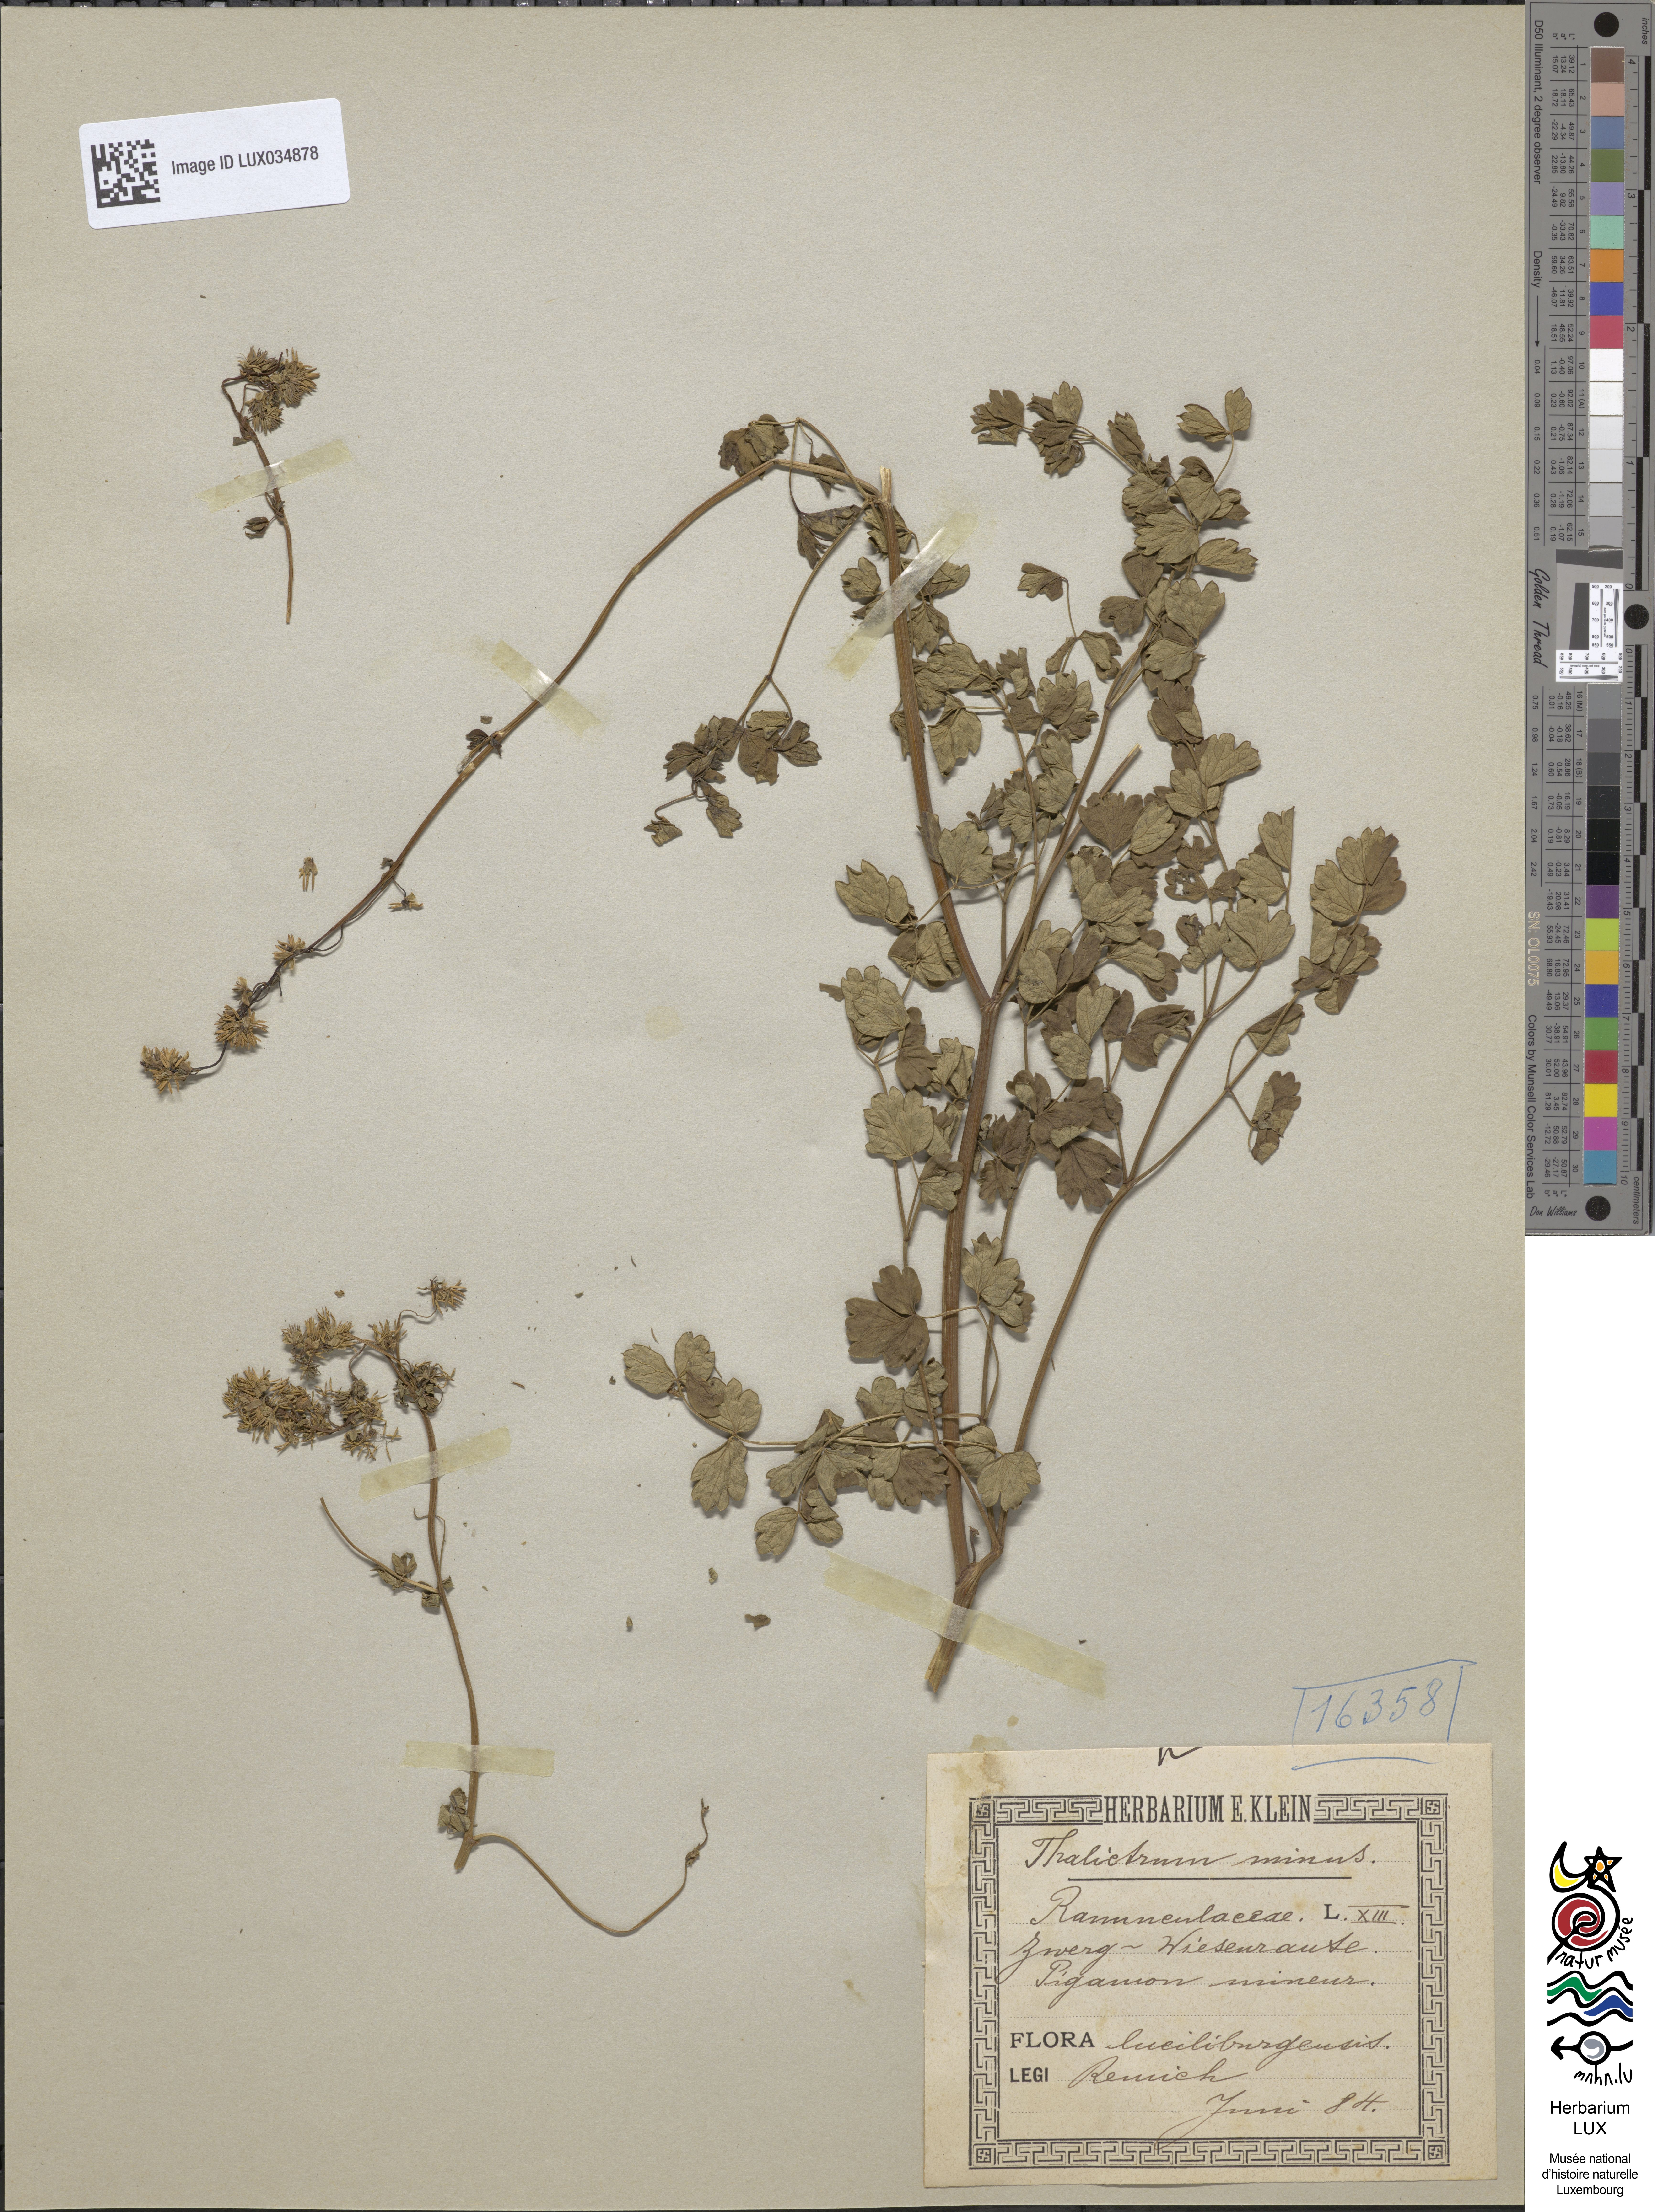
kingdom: Plantae
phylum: Tracheophyta
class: Magnoliopsida
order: Ranunculales
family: Ranunculaceae
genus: Thalictrum
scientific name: Thalictrum minus
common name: Lesser meadow-rue
